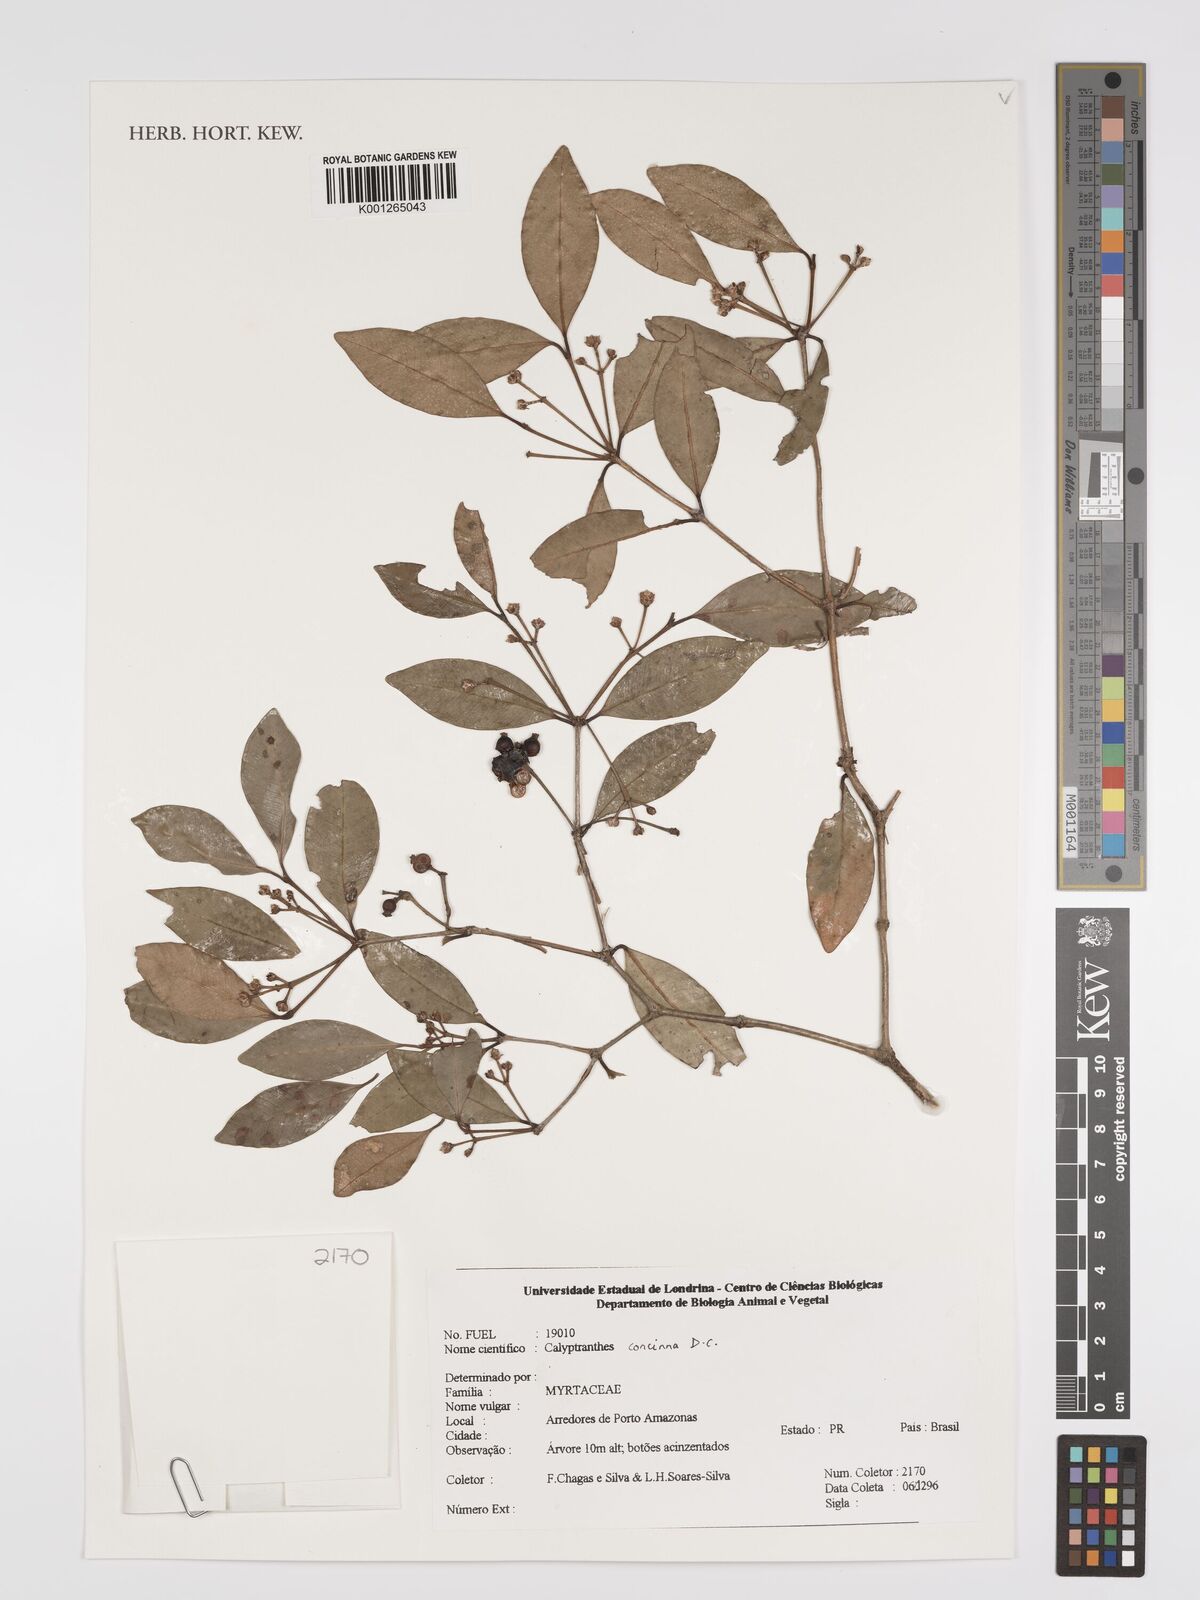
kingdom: Plantae
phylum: Tracheophyta
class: Magnoliopsida
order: Myrtales
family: Myrtaceae
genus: Myrcia
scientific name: Myrcia cruciflora
